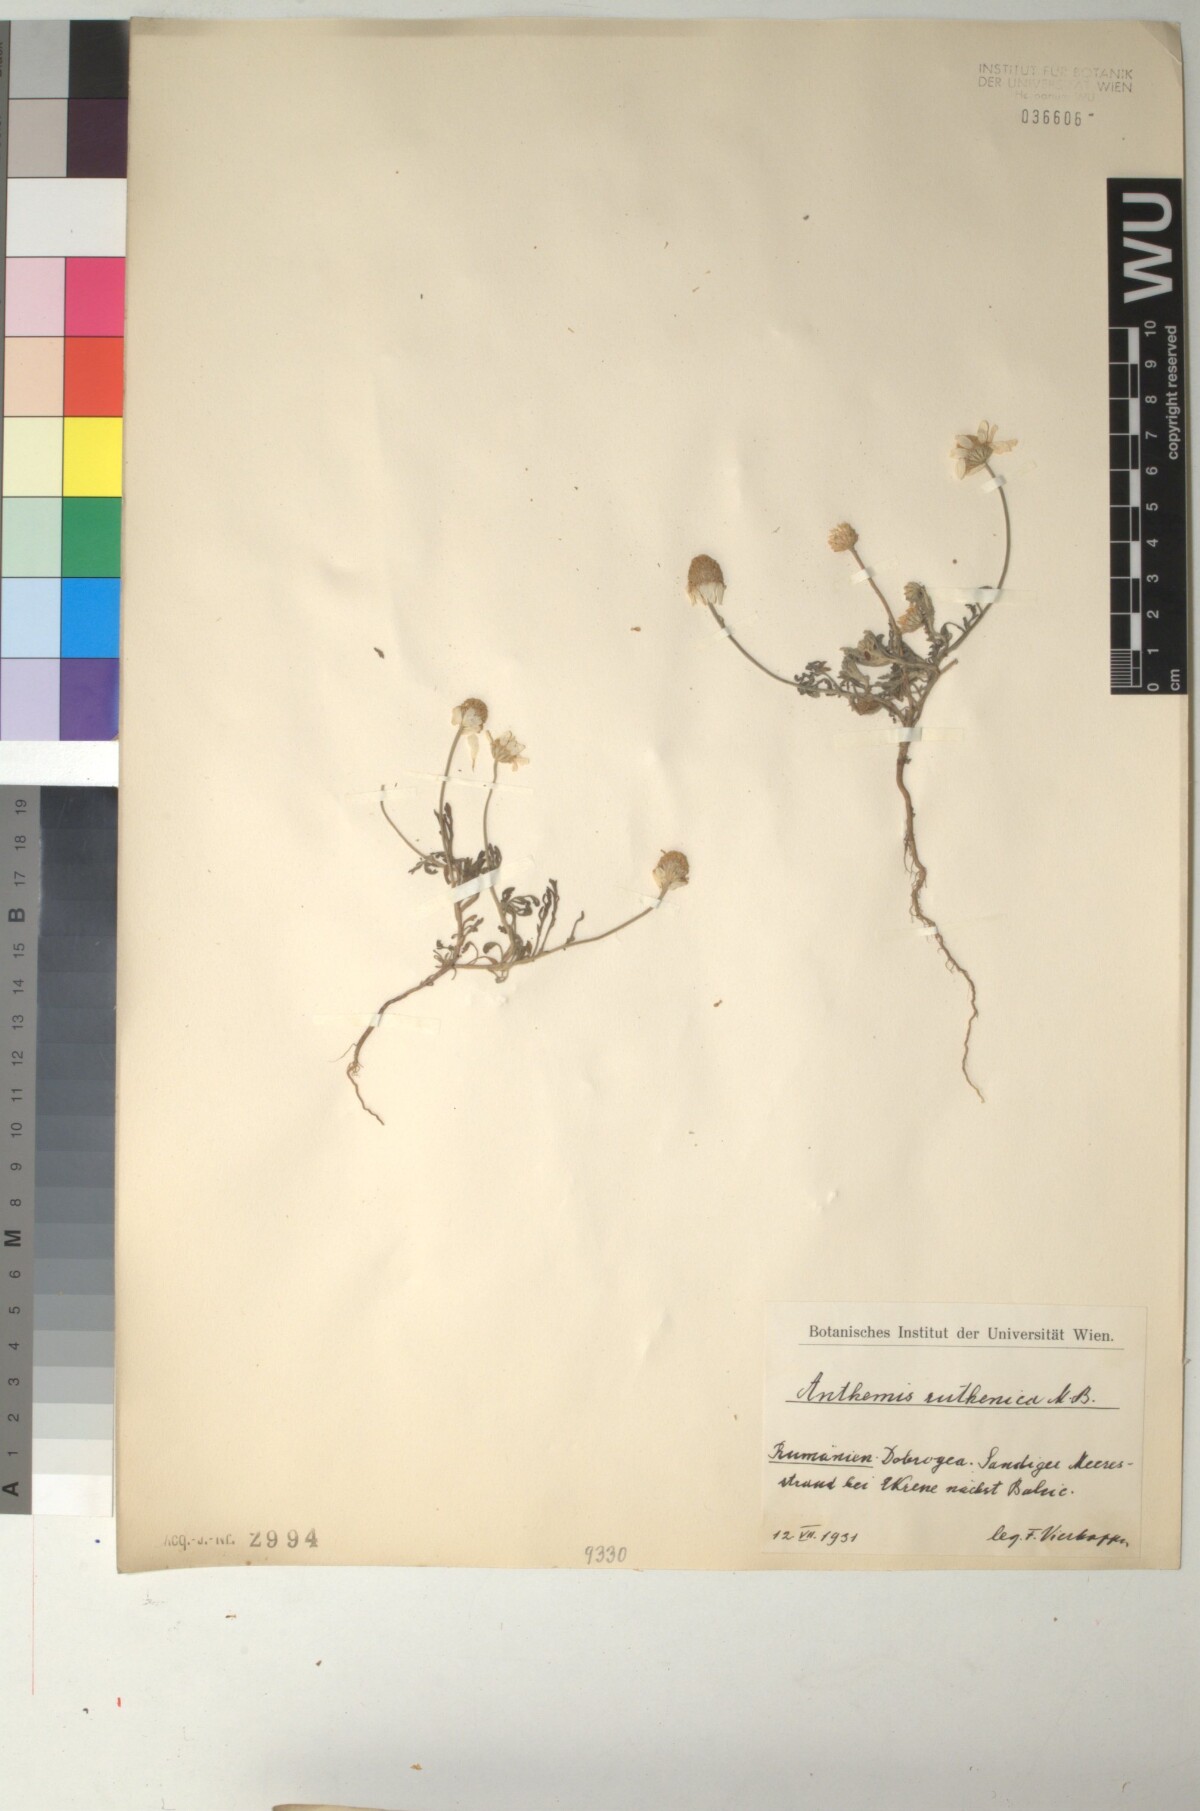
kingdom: Plantae
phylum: Tracheophyta
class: Magnoliopsida
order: Asterales
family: Asteraceae
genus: Anthemis
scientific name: Anthemis ruthenica
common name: Eastern chamomile
